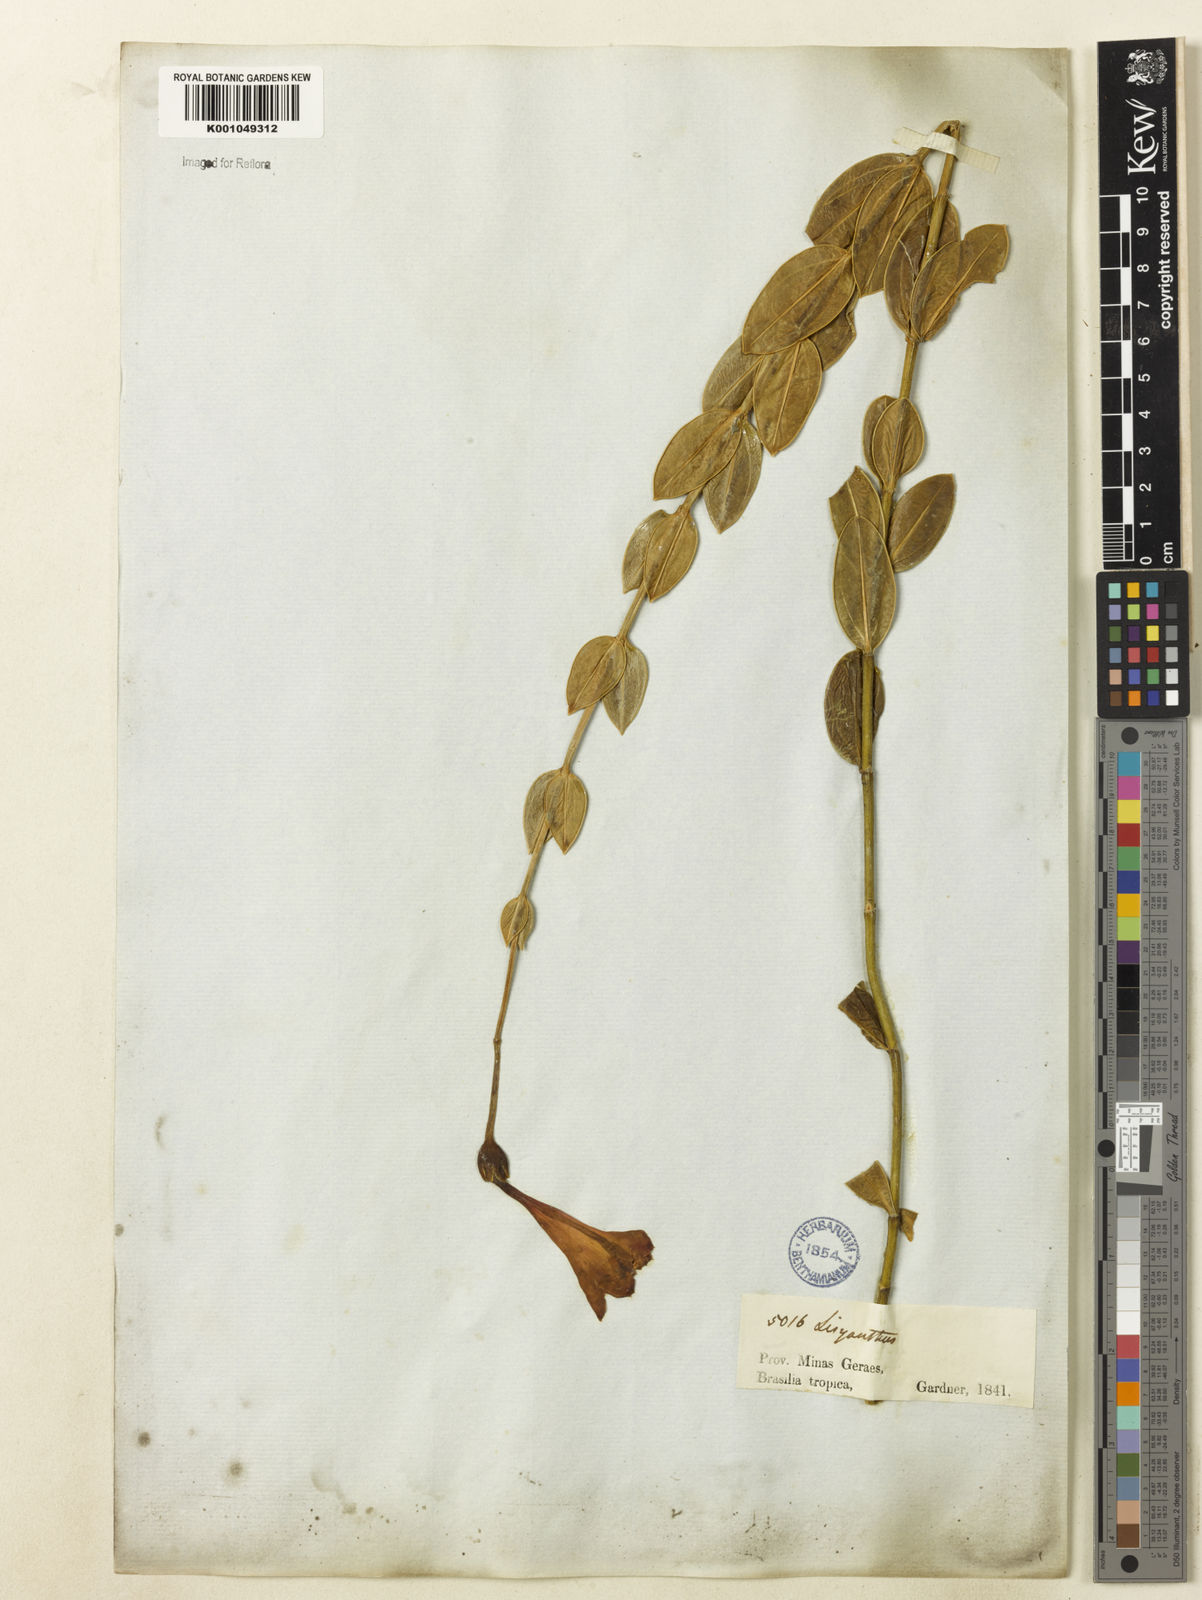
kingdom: Plantae
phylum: Tracheophyta
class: Magnoliopsida
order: Gentianales
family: Gentianaceae
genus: Calolisianthus
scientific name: Calolisianthus pulcherrimus
